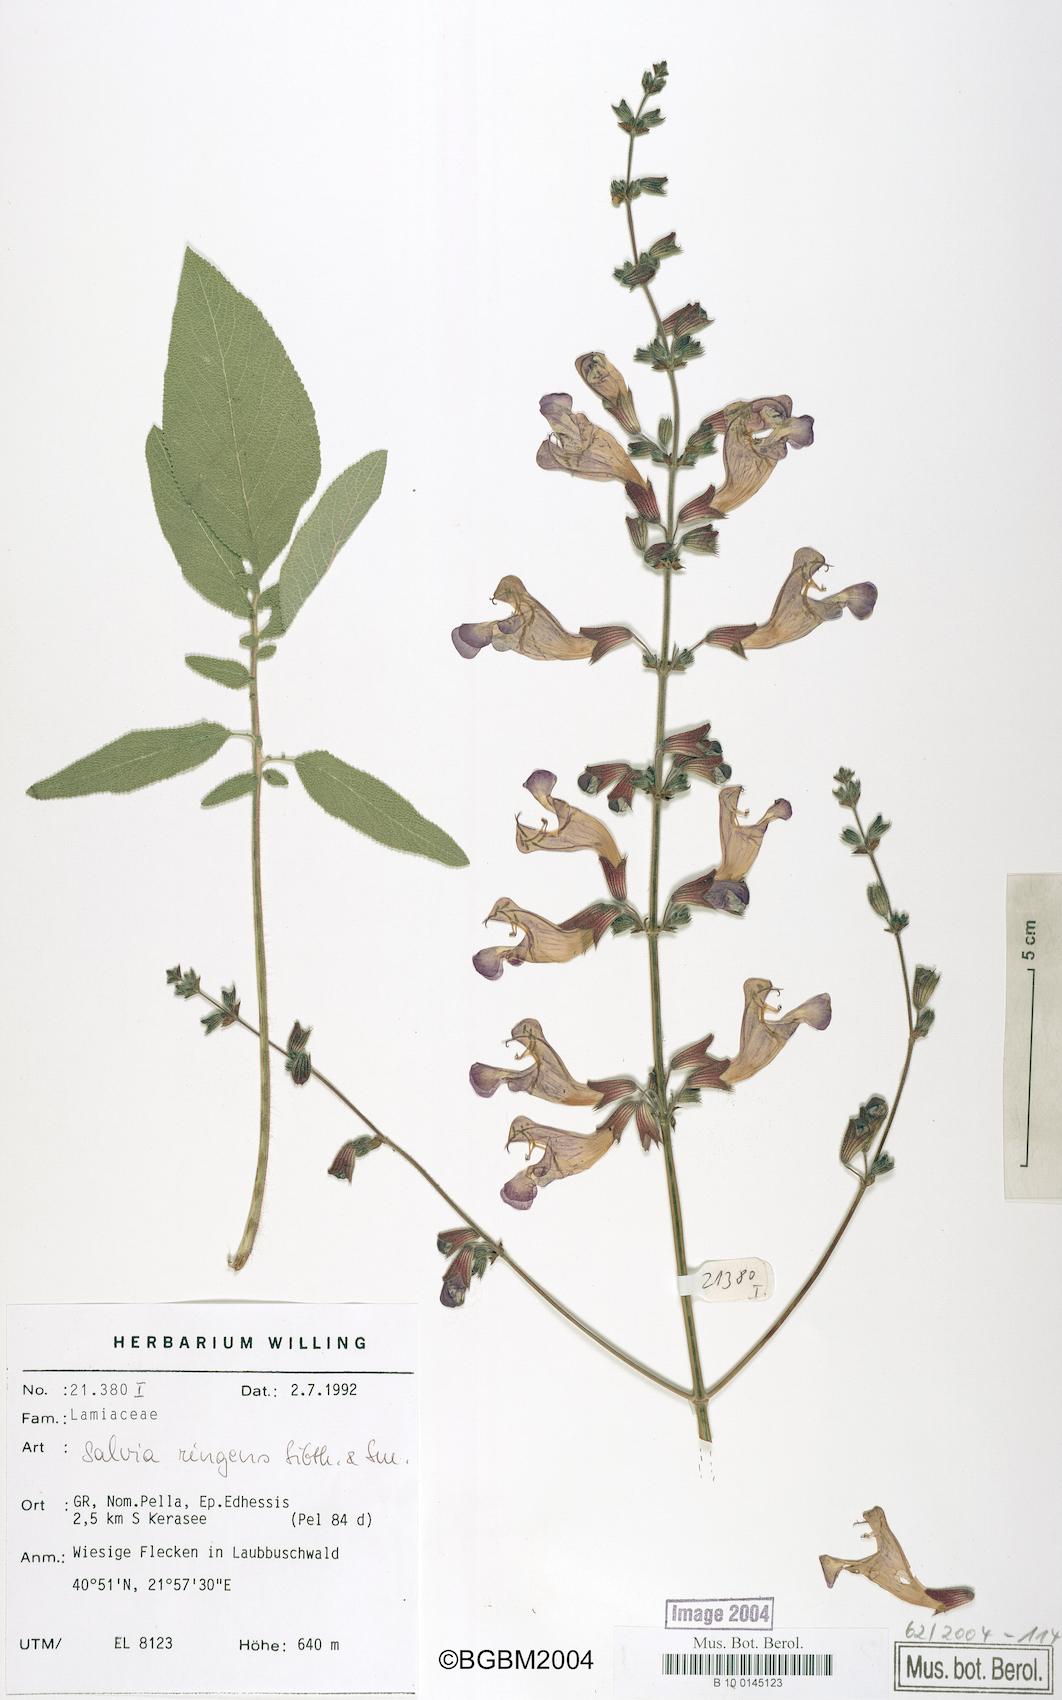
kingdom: Plantae
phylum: Tracheophyta
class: Magnoliopsida
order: Lamiales
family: Lamiaceae
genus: Salvia
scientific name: Salvia ringens
